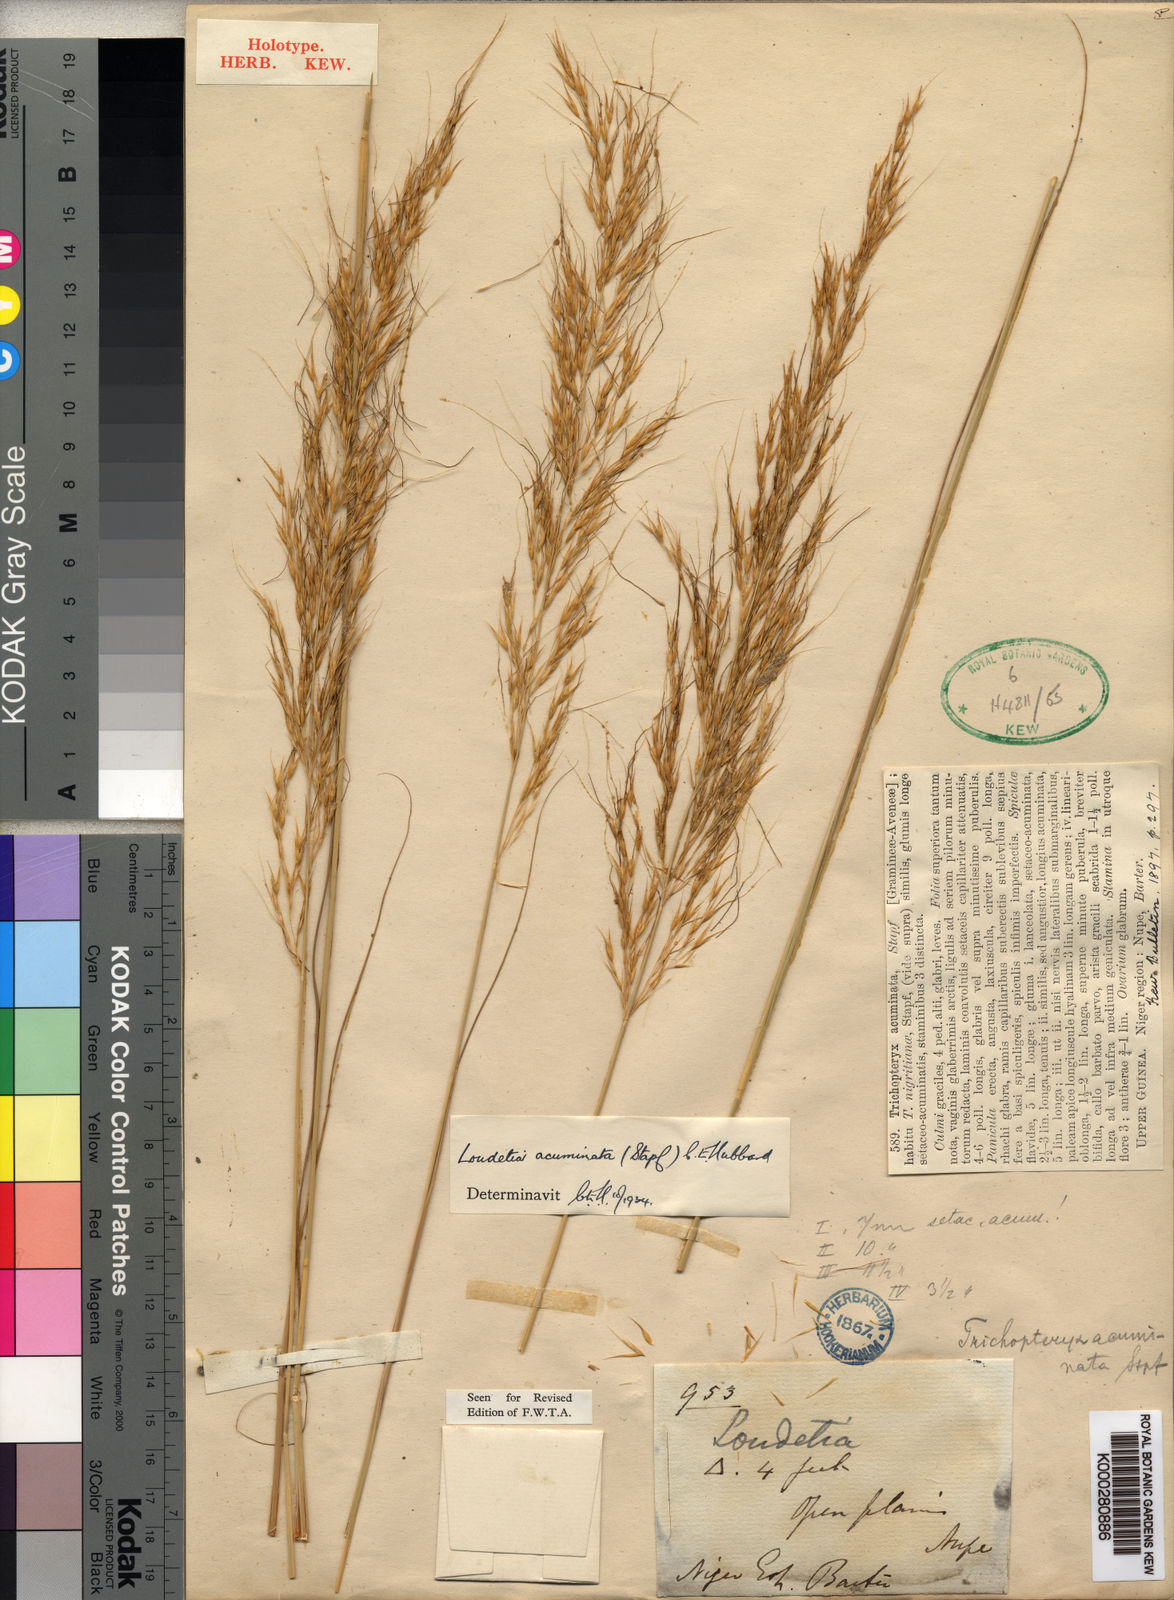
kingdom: Plantae
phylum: Tracheophyta
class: Liliopsida
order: Poales
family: Poaceae
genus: Loudetia
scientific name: Loudetia flavida
